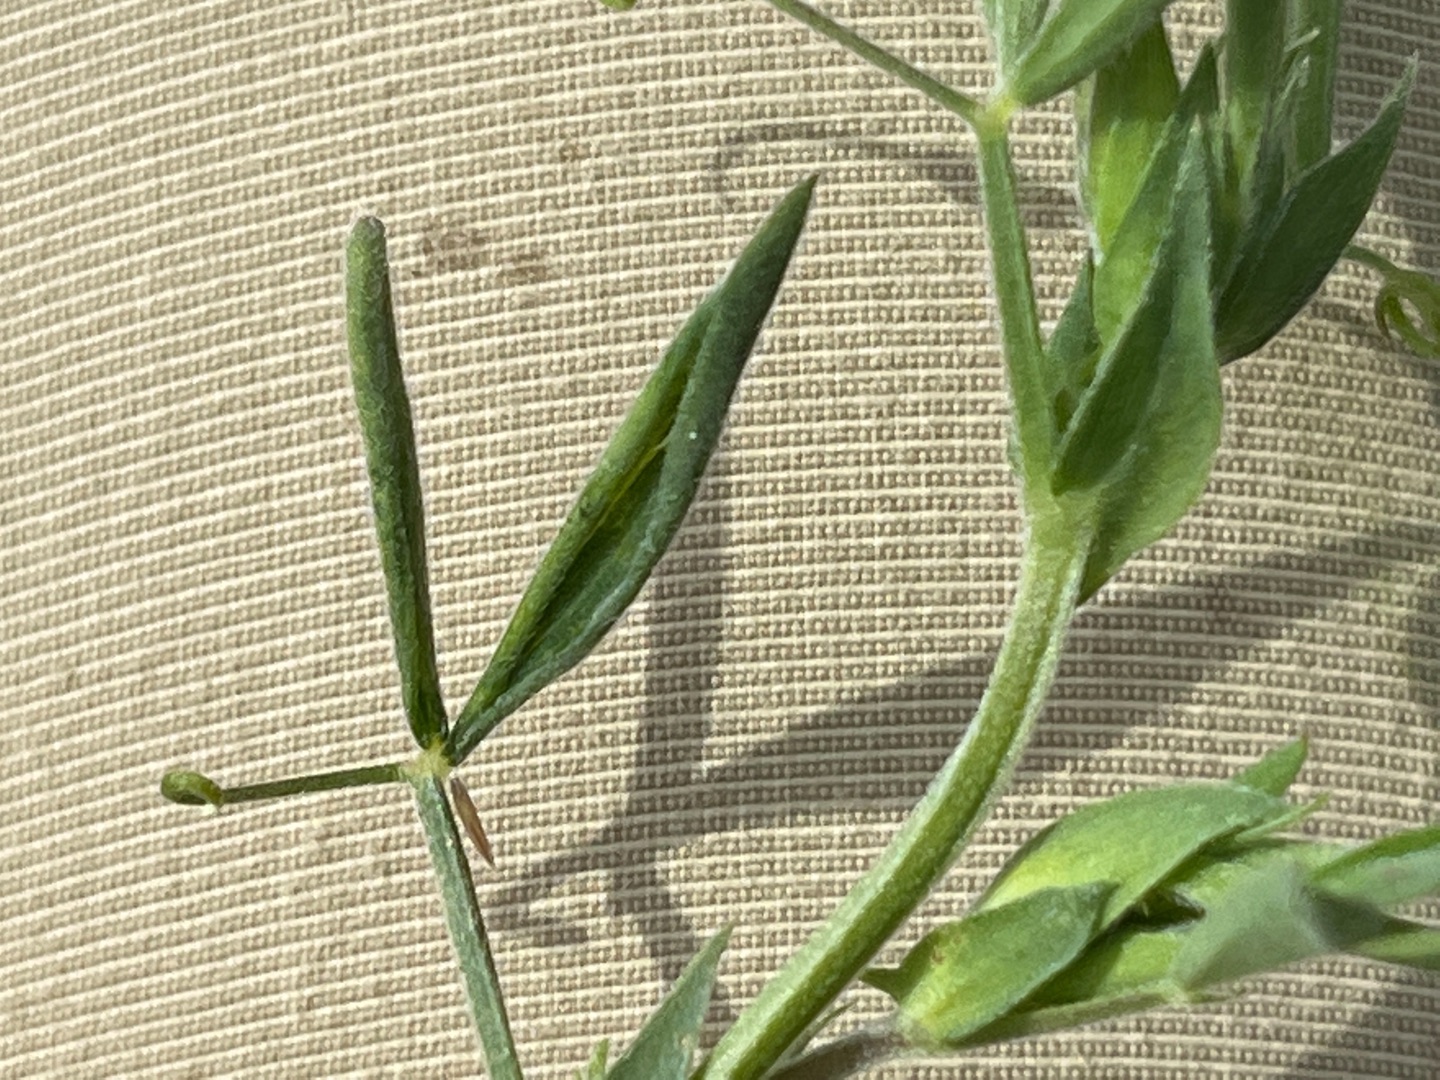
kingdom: Animalia
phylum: Arthropoda
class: Insecta
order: Diptera
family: Cecidomyiidae
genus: Jaapiella
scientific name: Jaapiella volvens
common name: Fladbælgrullegalmyg
